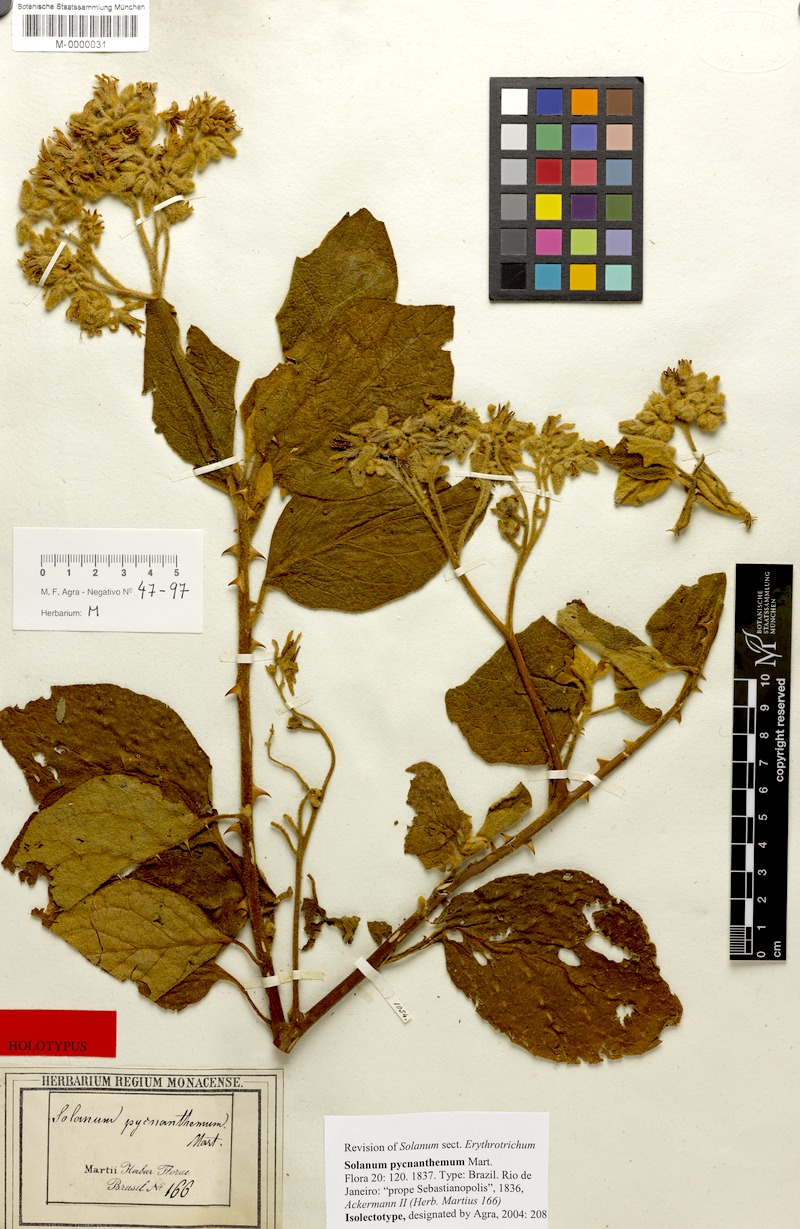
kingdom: Plantae
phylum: Tracheophyta
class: Magnoliopsida
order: Solanales
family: Solanaceae
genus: Solanum
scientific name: Solanum pycnanthemum
